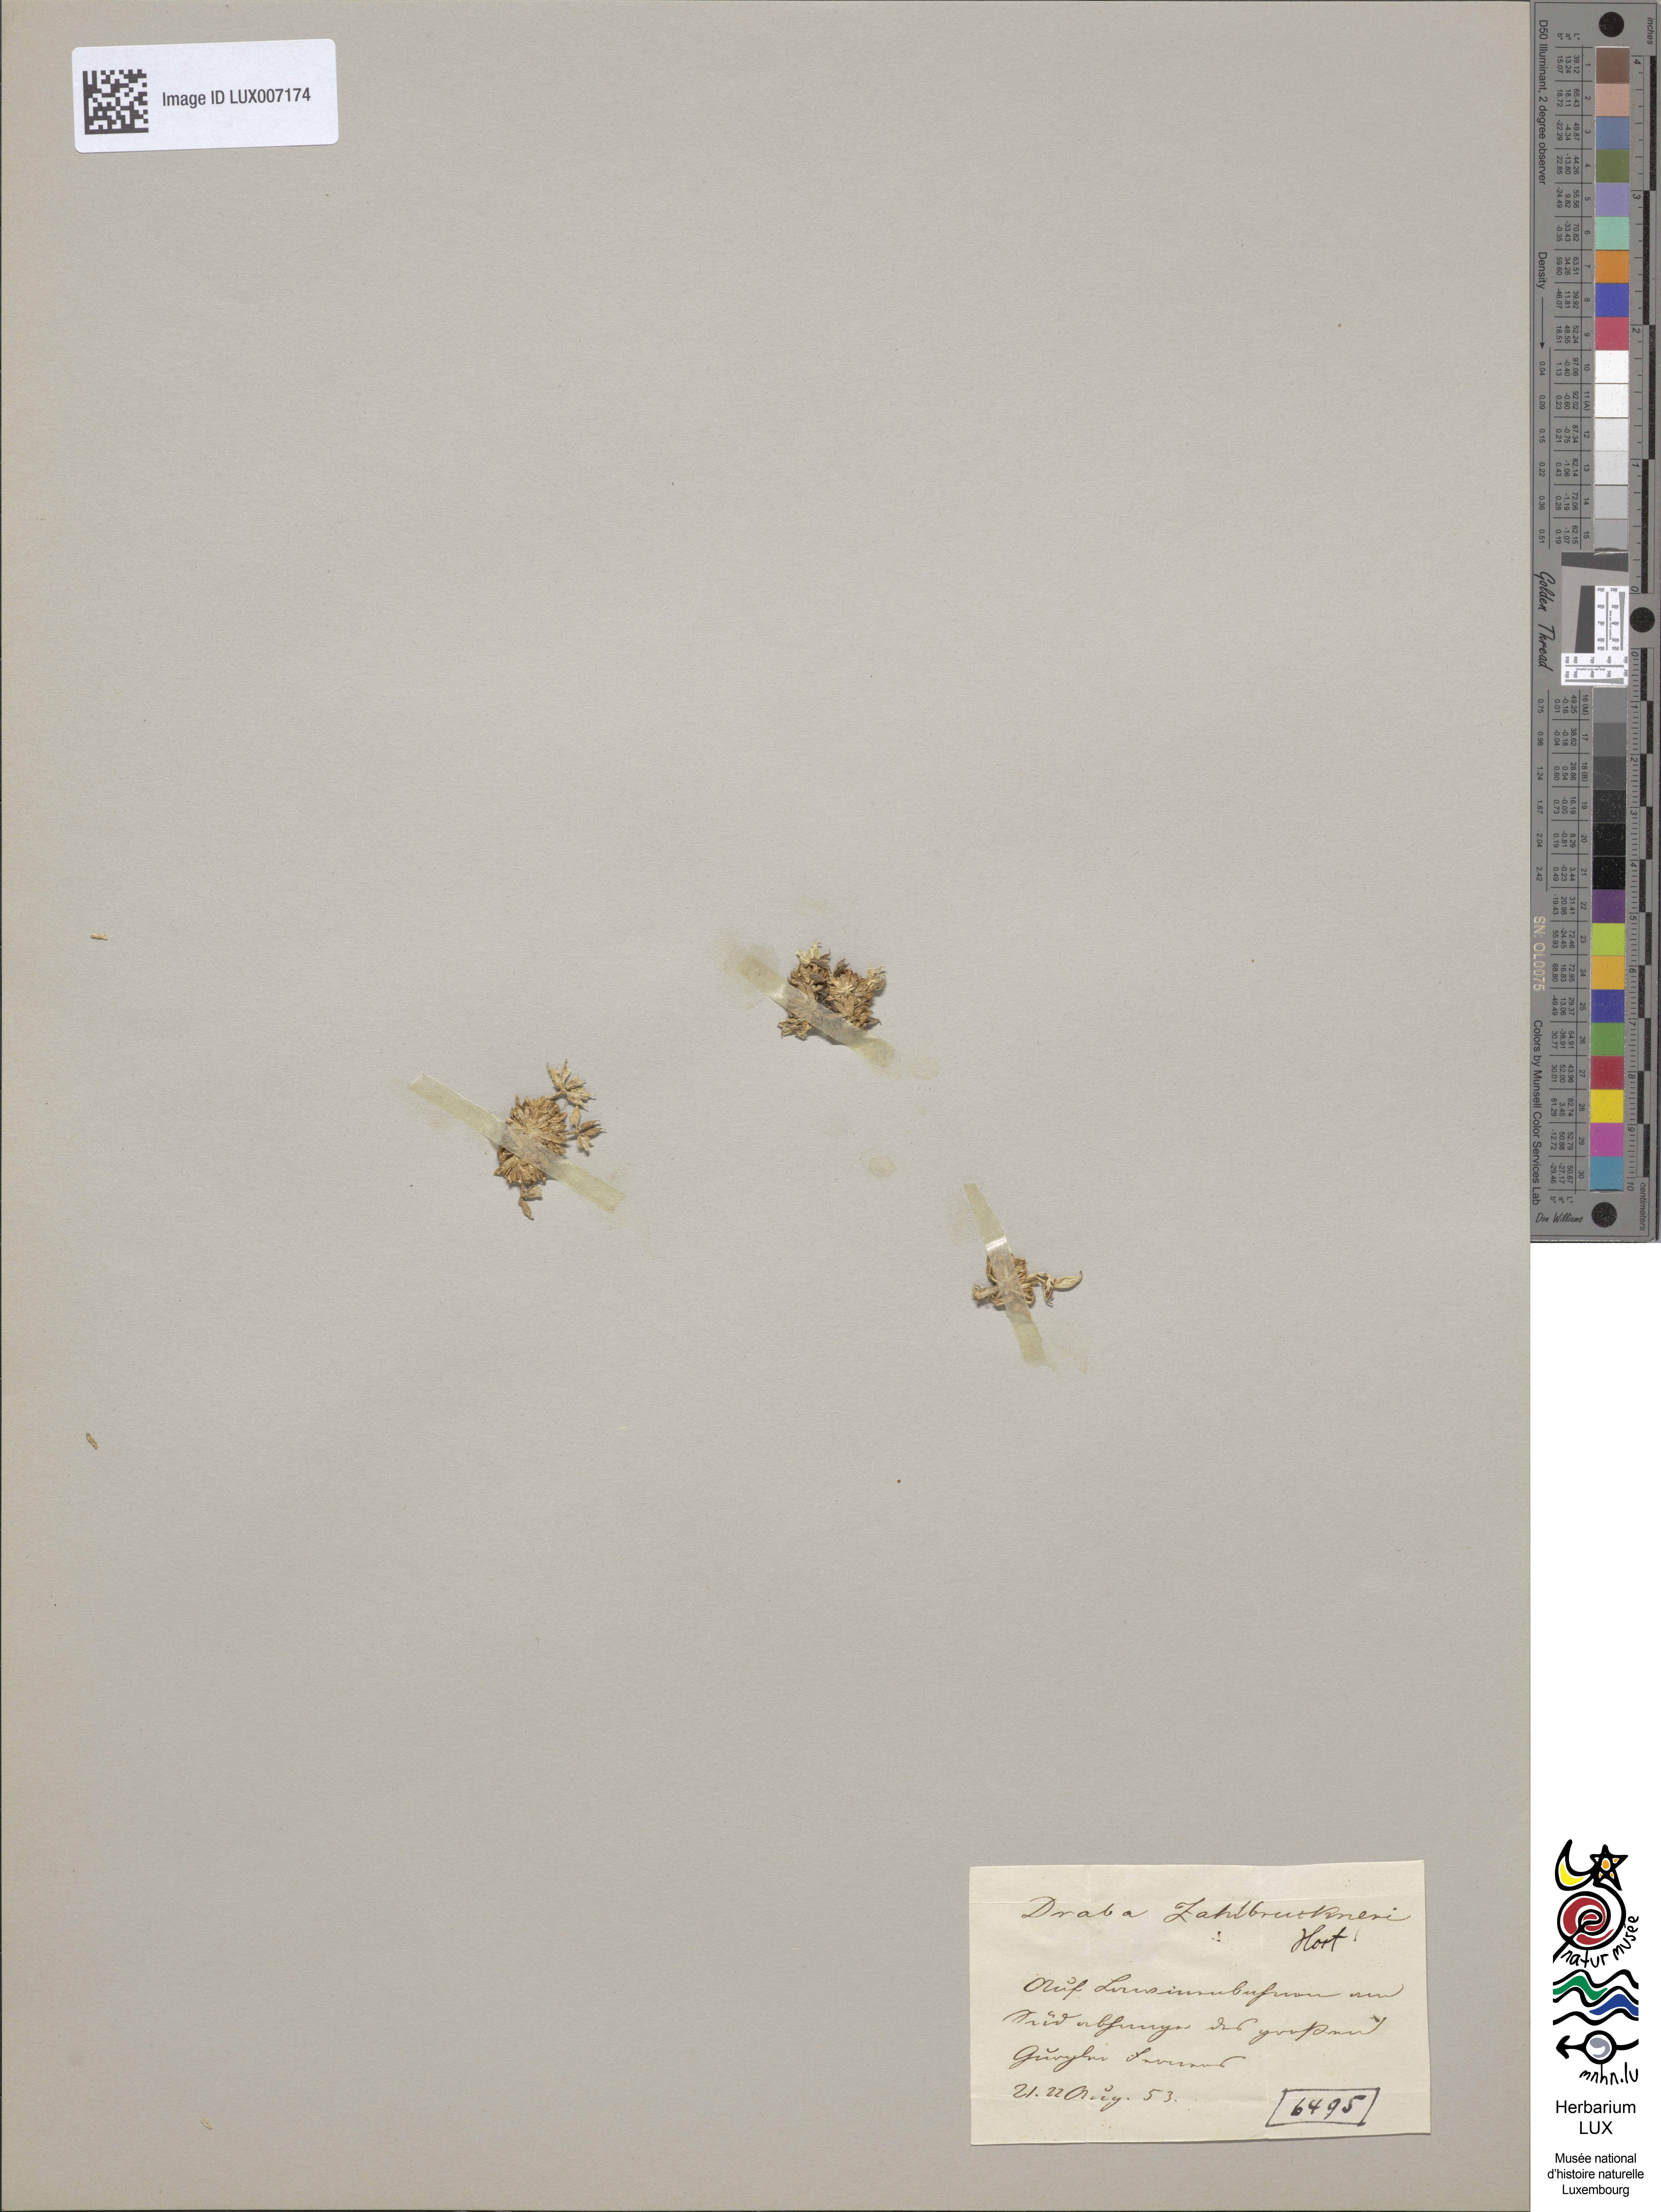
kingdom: Plantae
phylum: Tracheophyta
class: Magnoliopsida
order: Brassicales
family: Brassicaceae
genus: Draba
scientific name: Draba hoppeana
